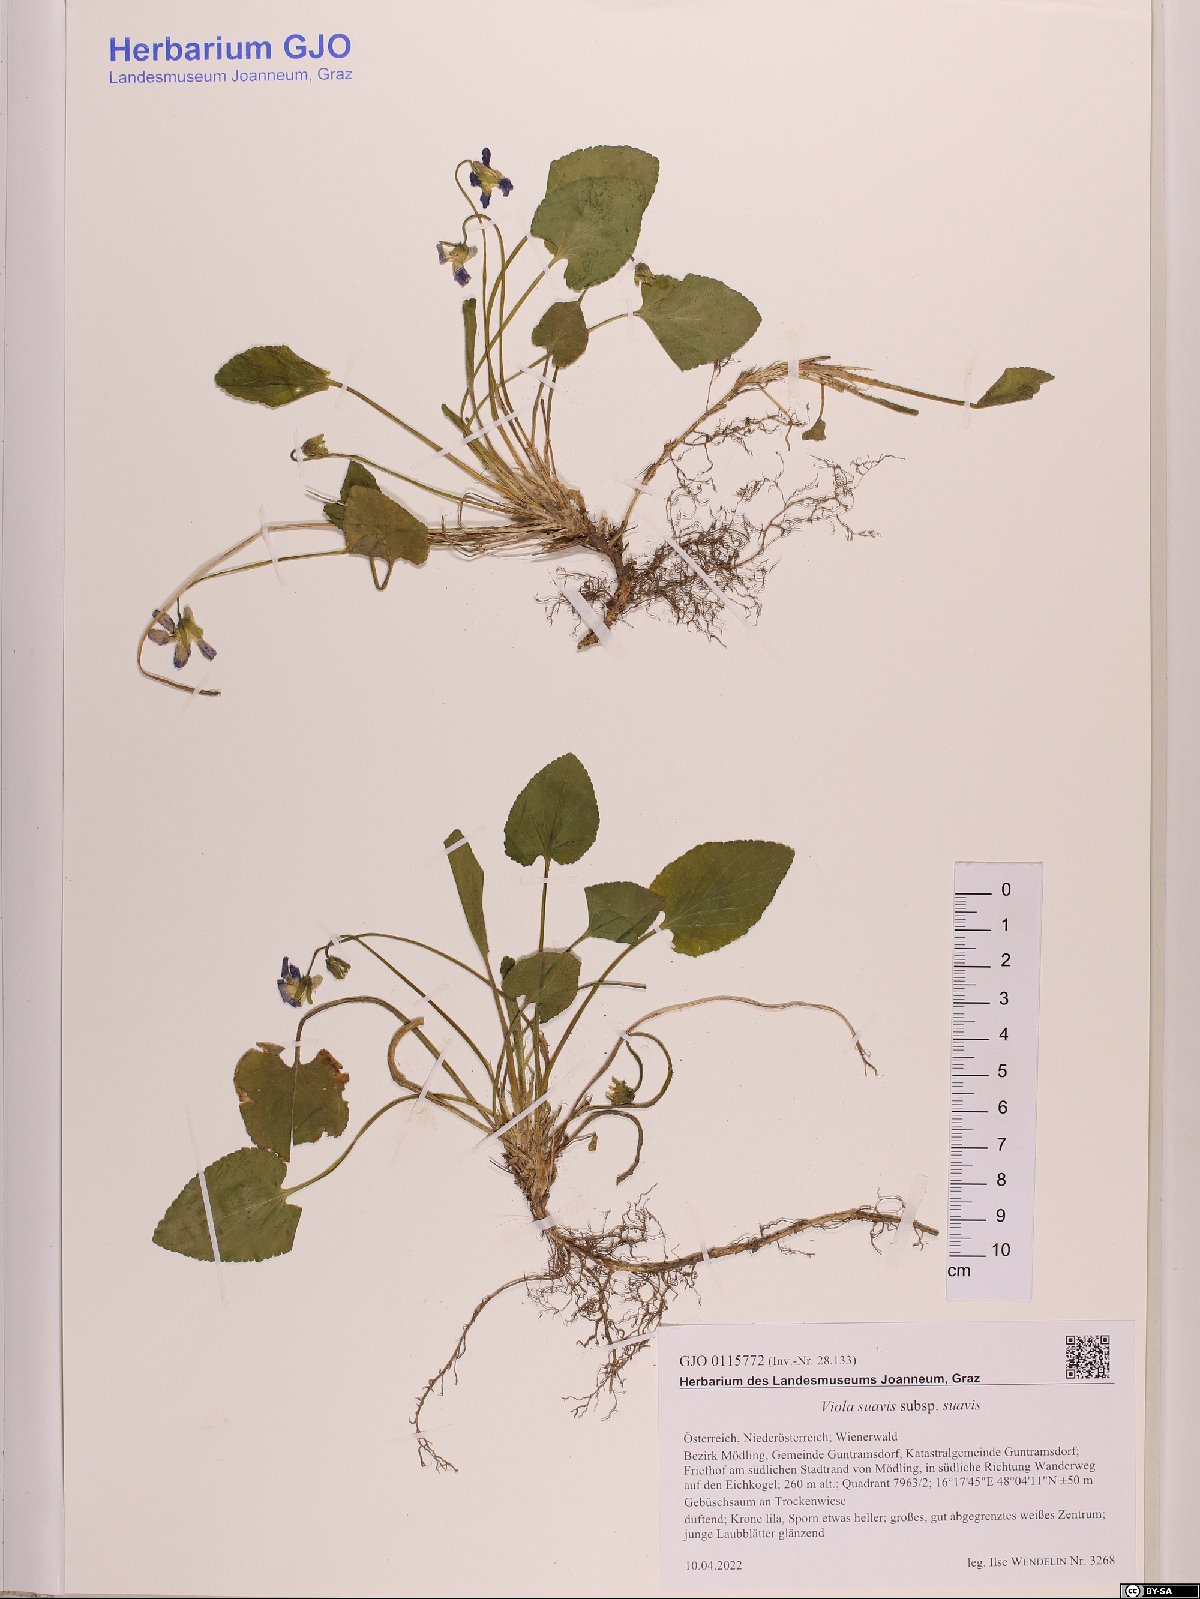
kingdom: Plantae
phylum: Tracheophyta
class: Magnoliopsida
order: Malpighiales
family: Violaceae
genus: Viola
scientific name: Viola suavis
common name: Russian violet
